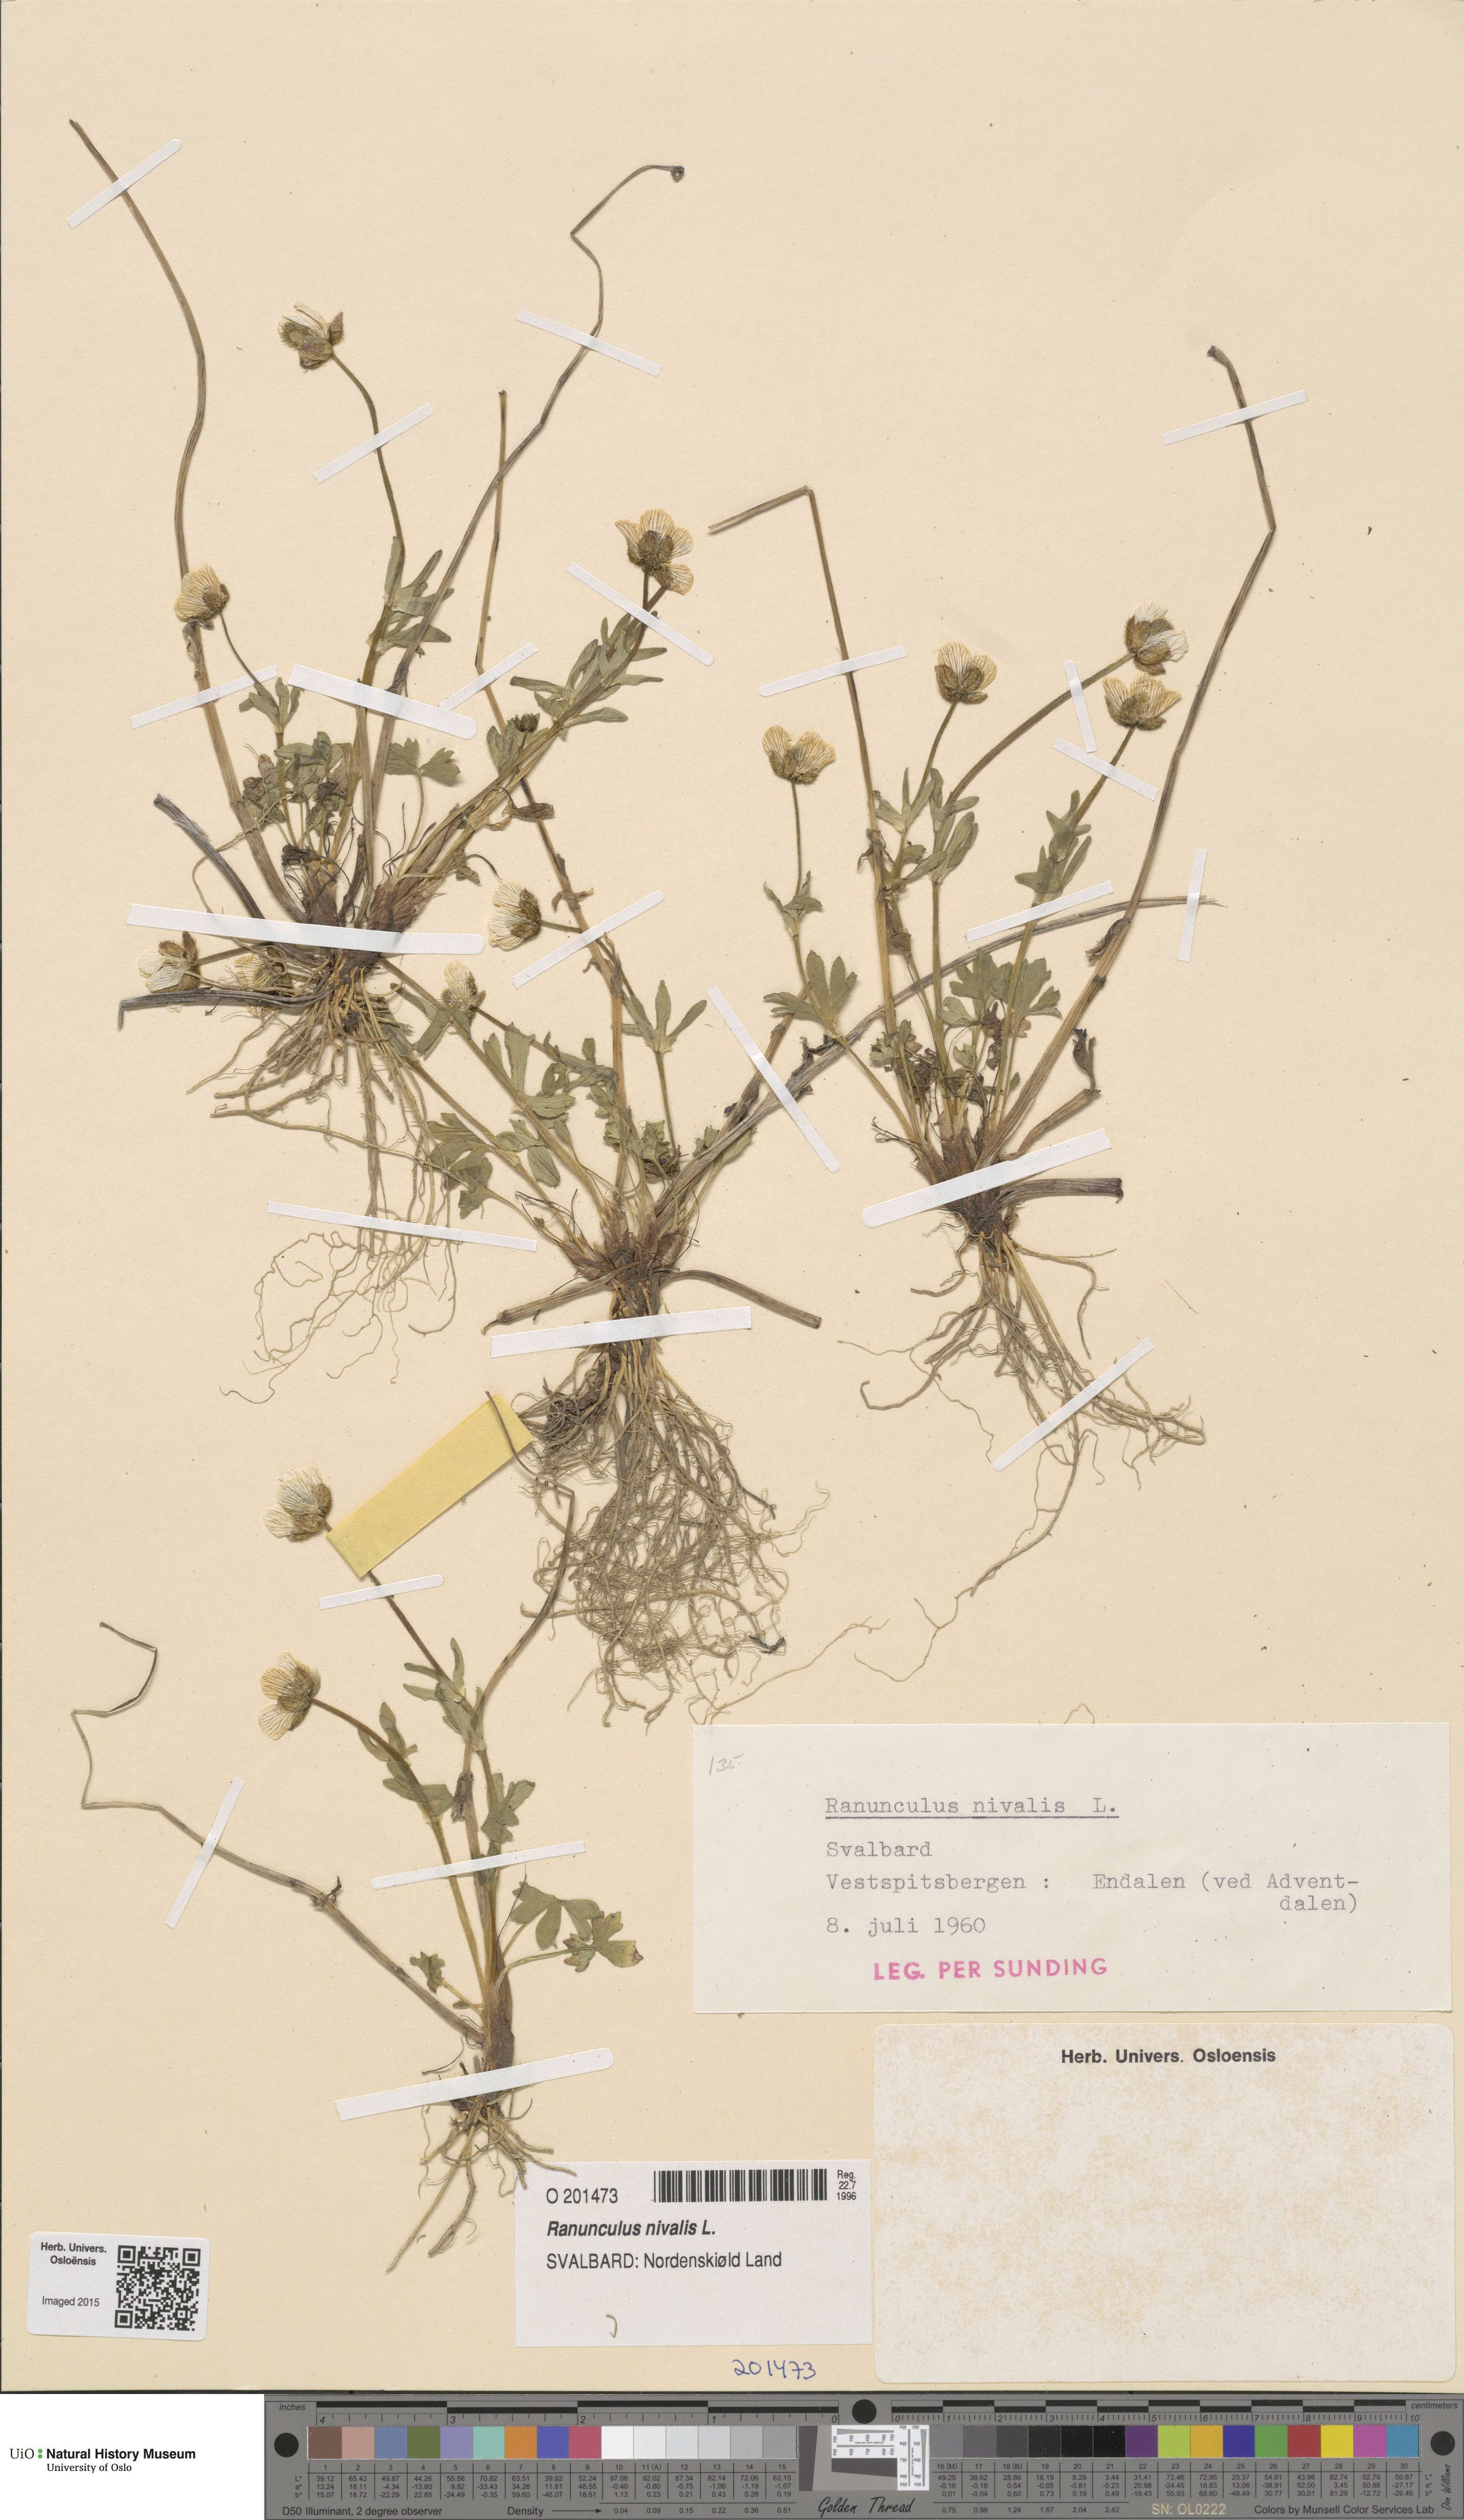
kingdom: Plantae
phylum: Tracheophyta
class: Magnoliopsida
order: Ranunculales
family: Ranunculaceae
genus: Ranunculus
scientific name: Ranunculus nivalis
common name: Snow buttercup
